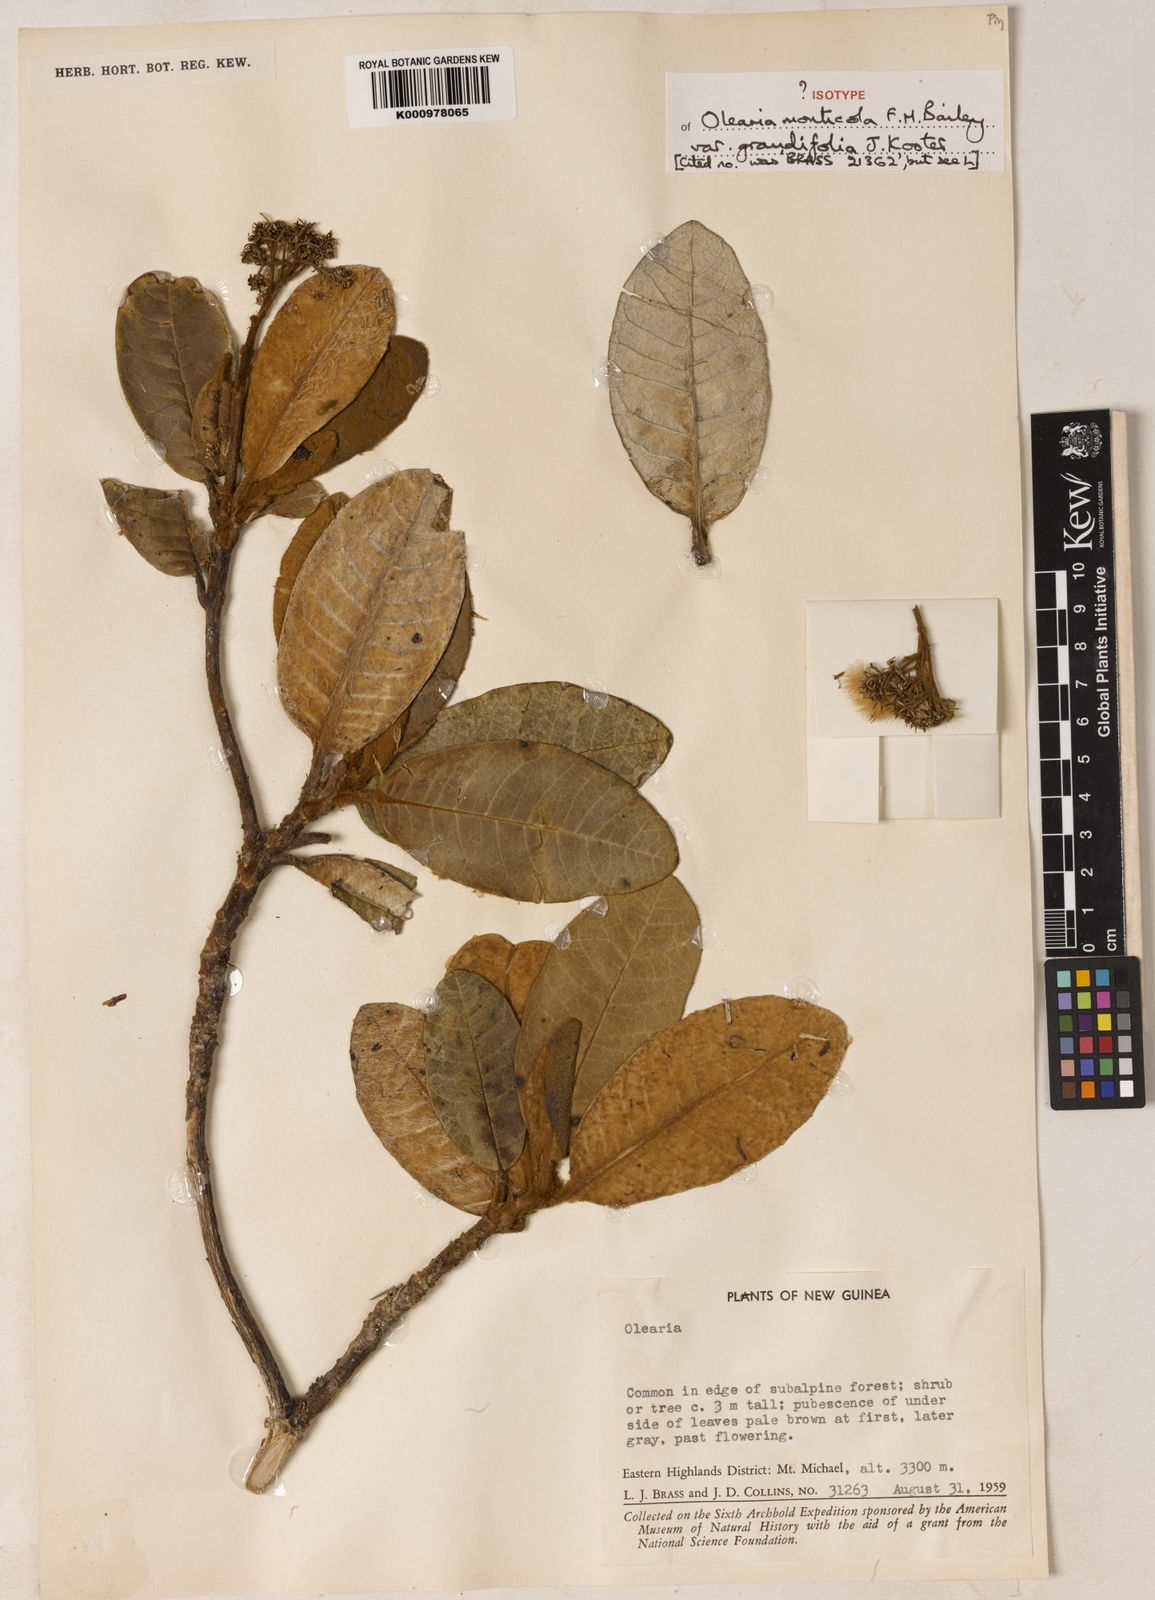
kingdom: Plantae
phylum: Tracheophyta
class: Magnoliopsida
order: Asterales
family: Asteraceae
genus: Olearia
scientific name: Olearia monticola
